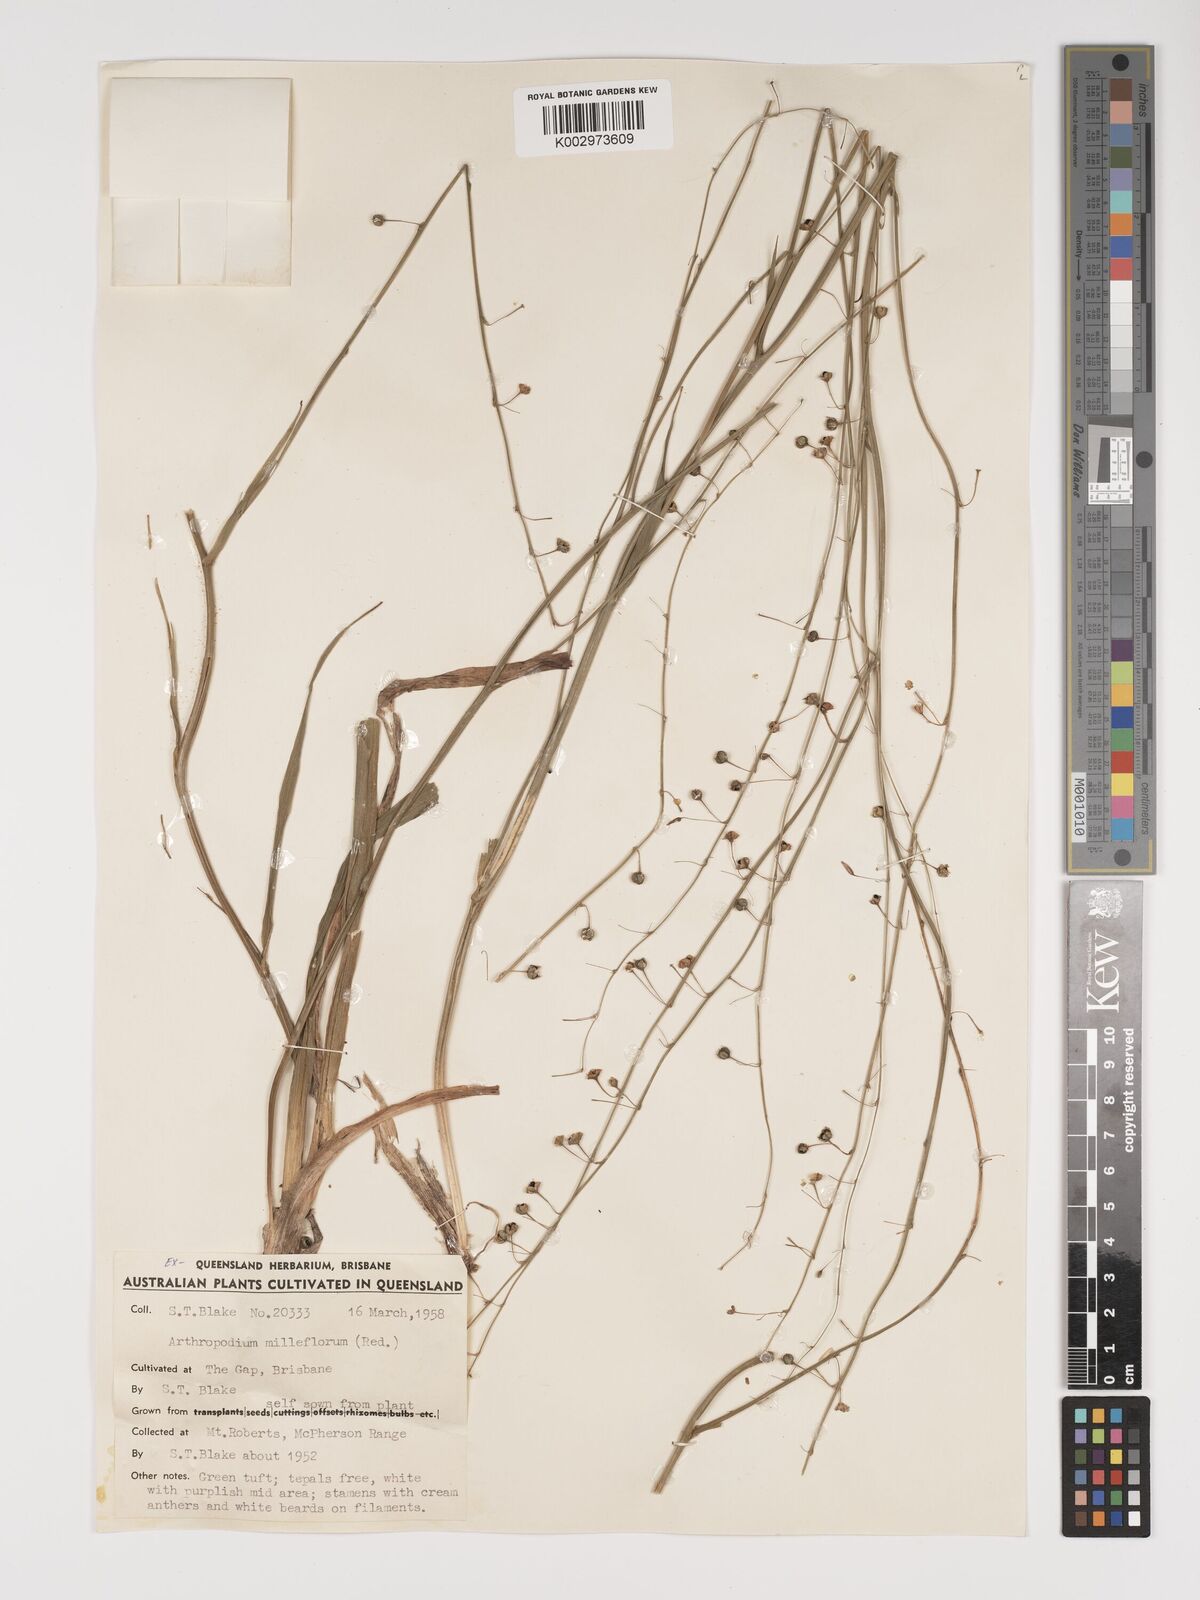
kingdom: Plantae
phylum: Tracheophyta
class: Liliopsida
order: Asparagales
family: Asparagaceae
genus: Arthropodium
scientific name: Arthropodium milleflorum
